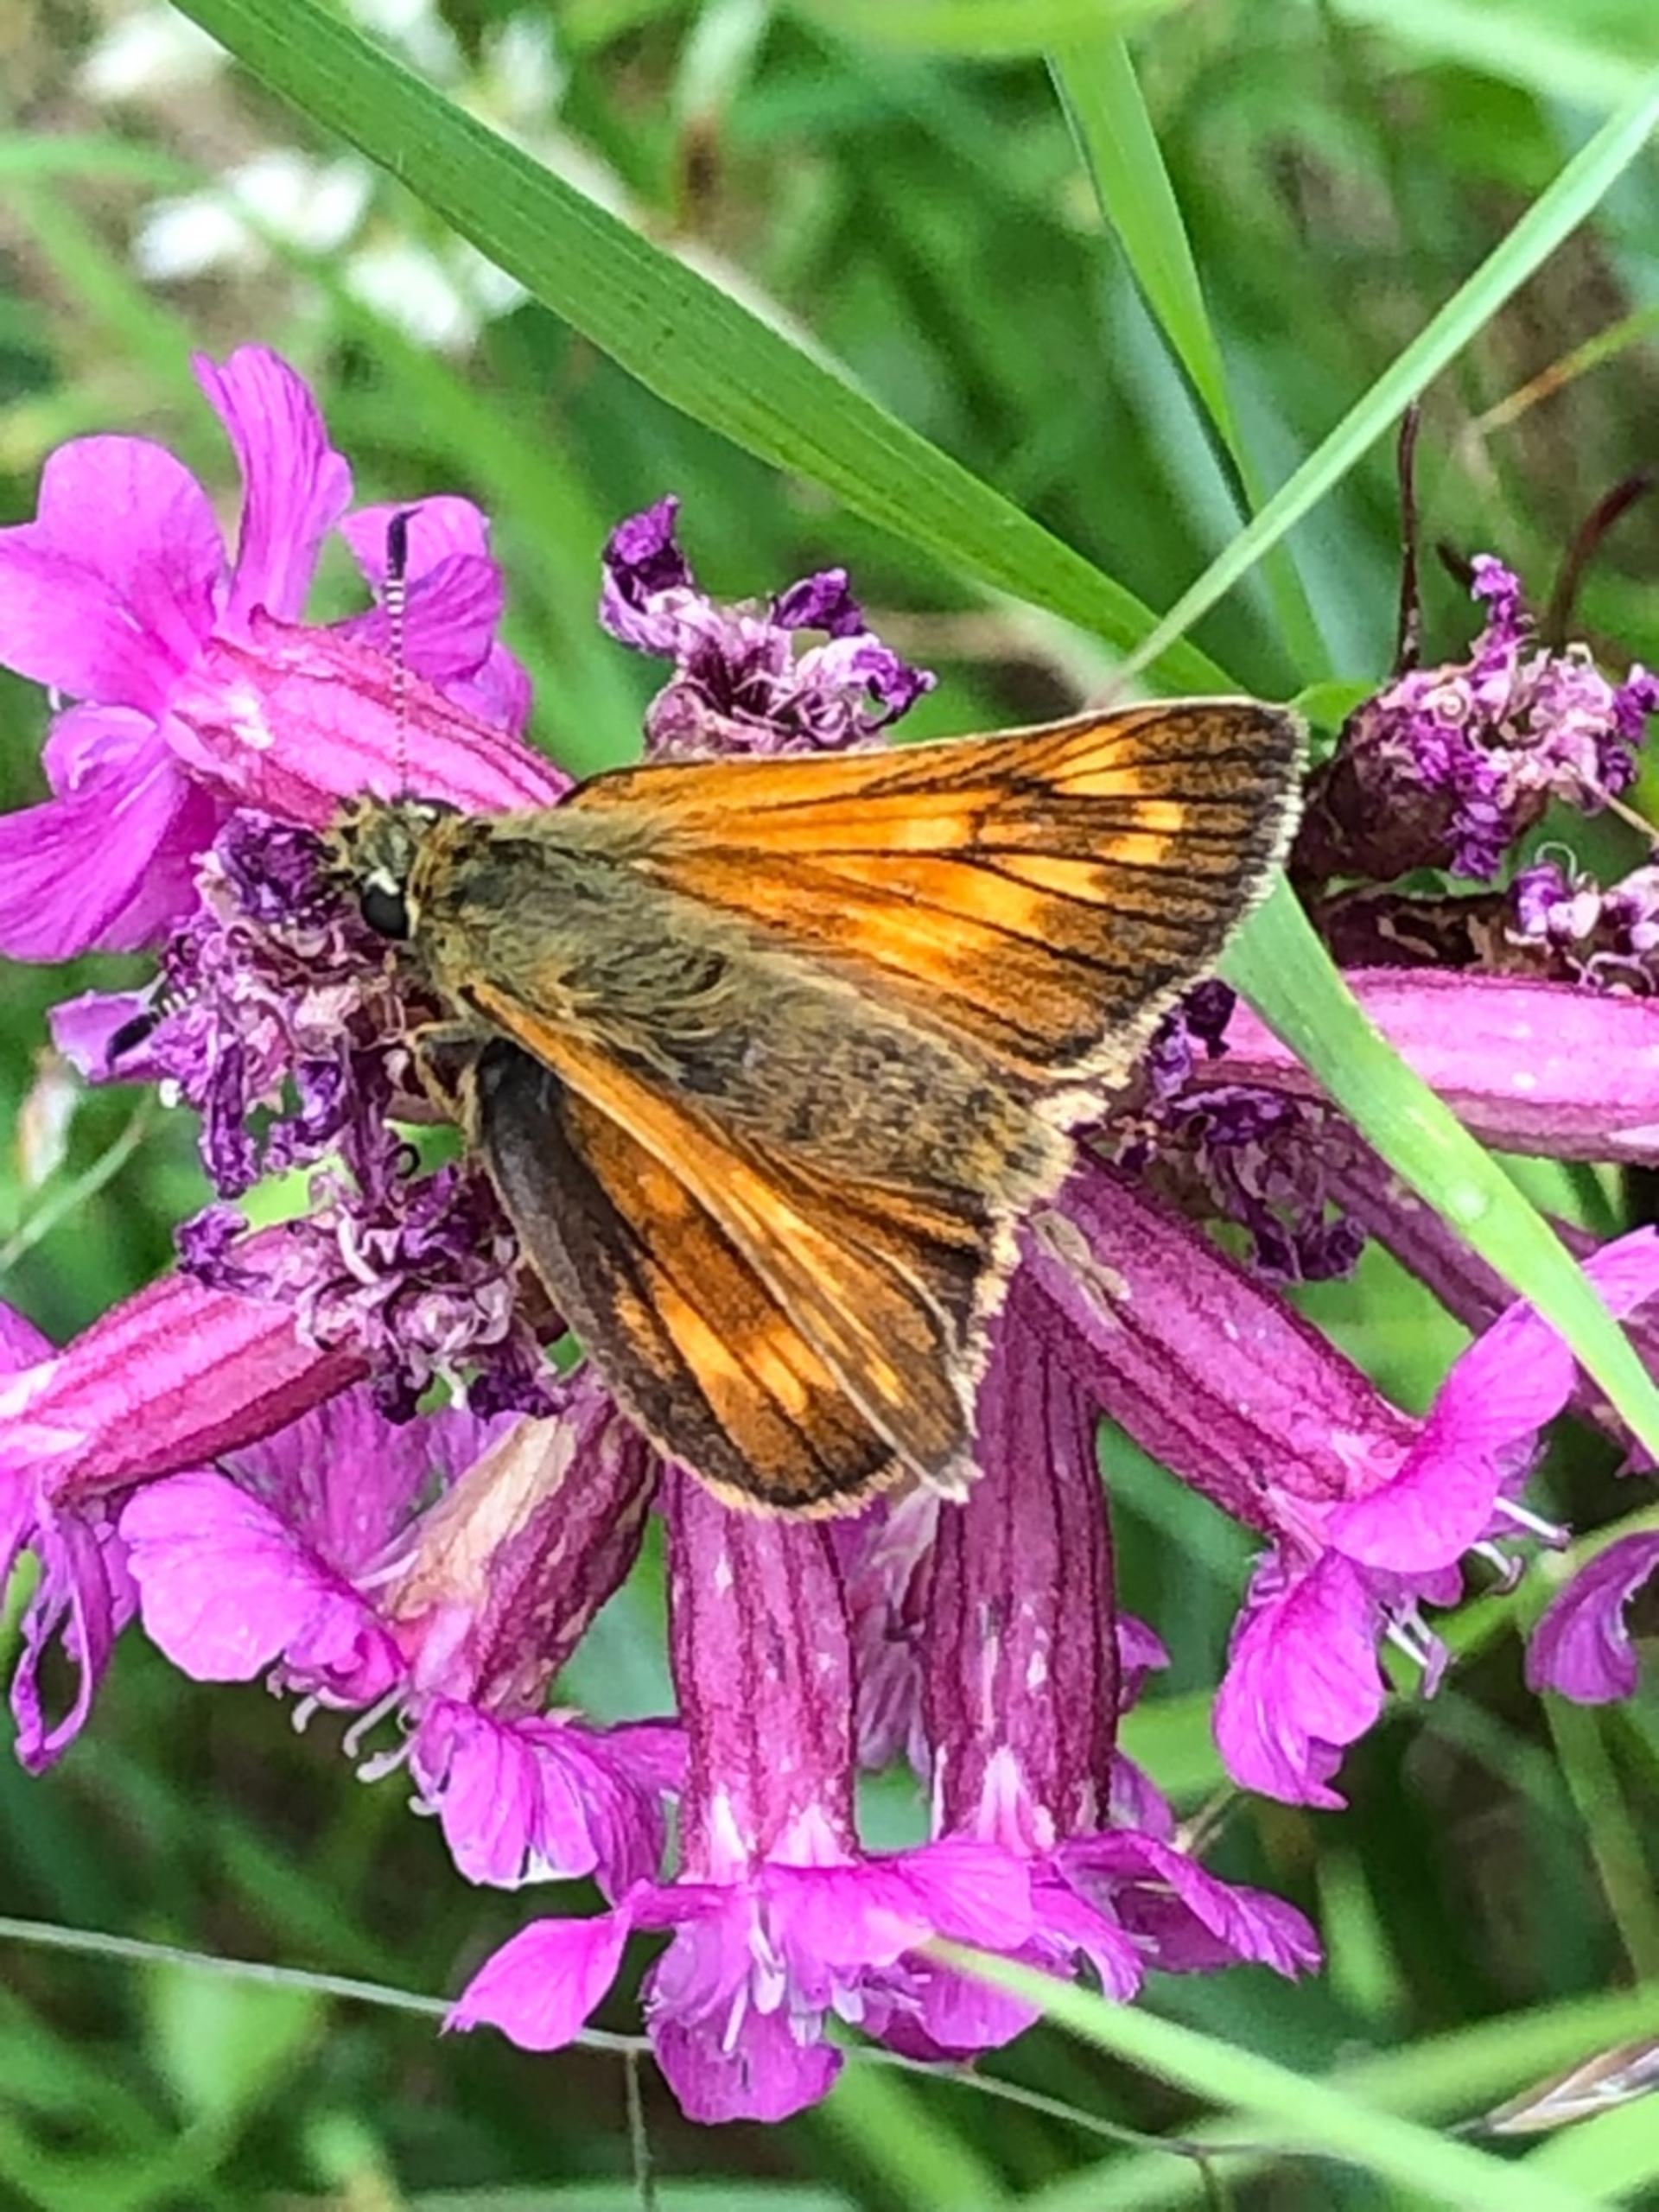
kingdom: Animalia
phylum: Arthropoda
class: Insecta
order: Lepidoptera
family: Hesperiidae
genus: Ochlodes
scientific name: Ochlodes venata
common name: Stor bredpande
